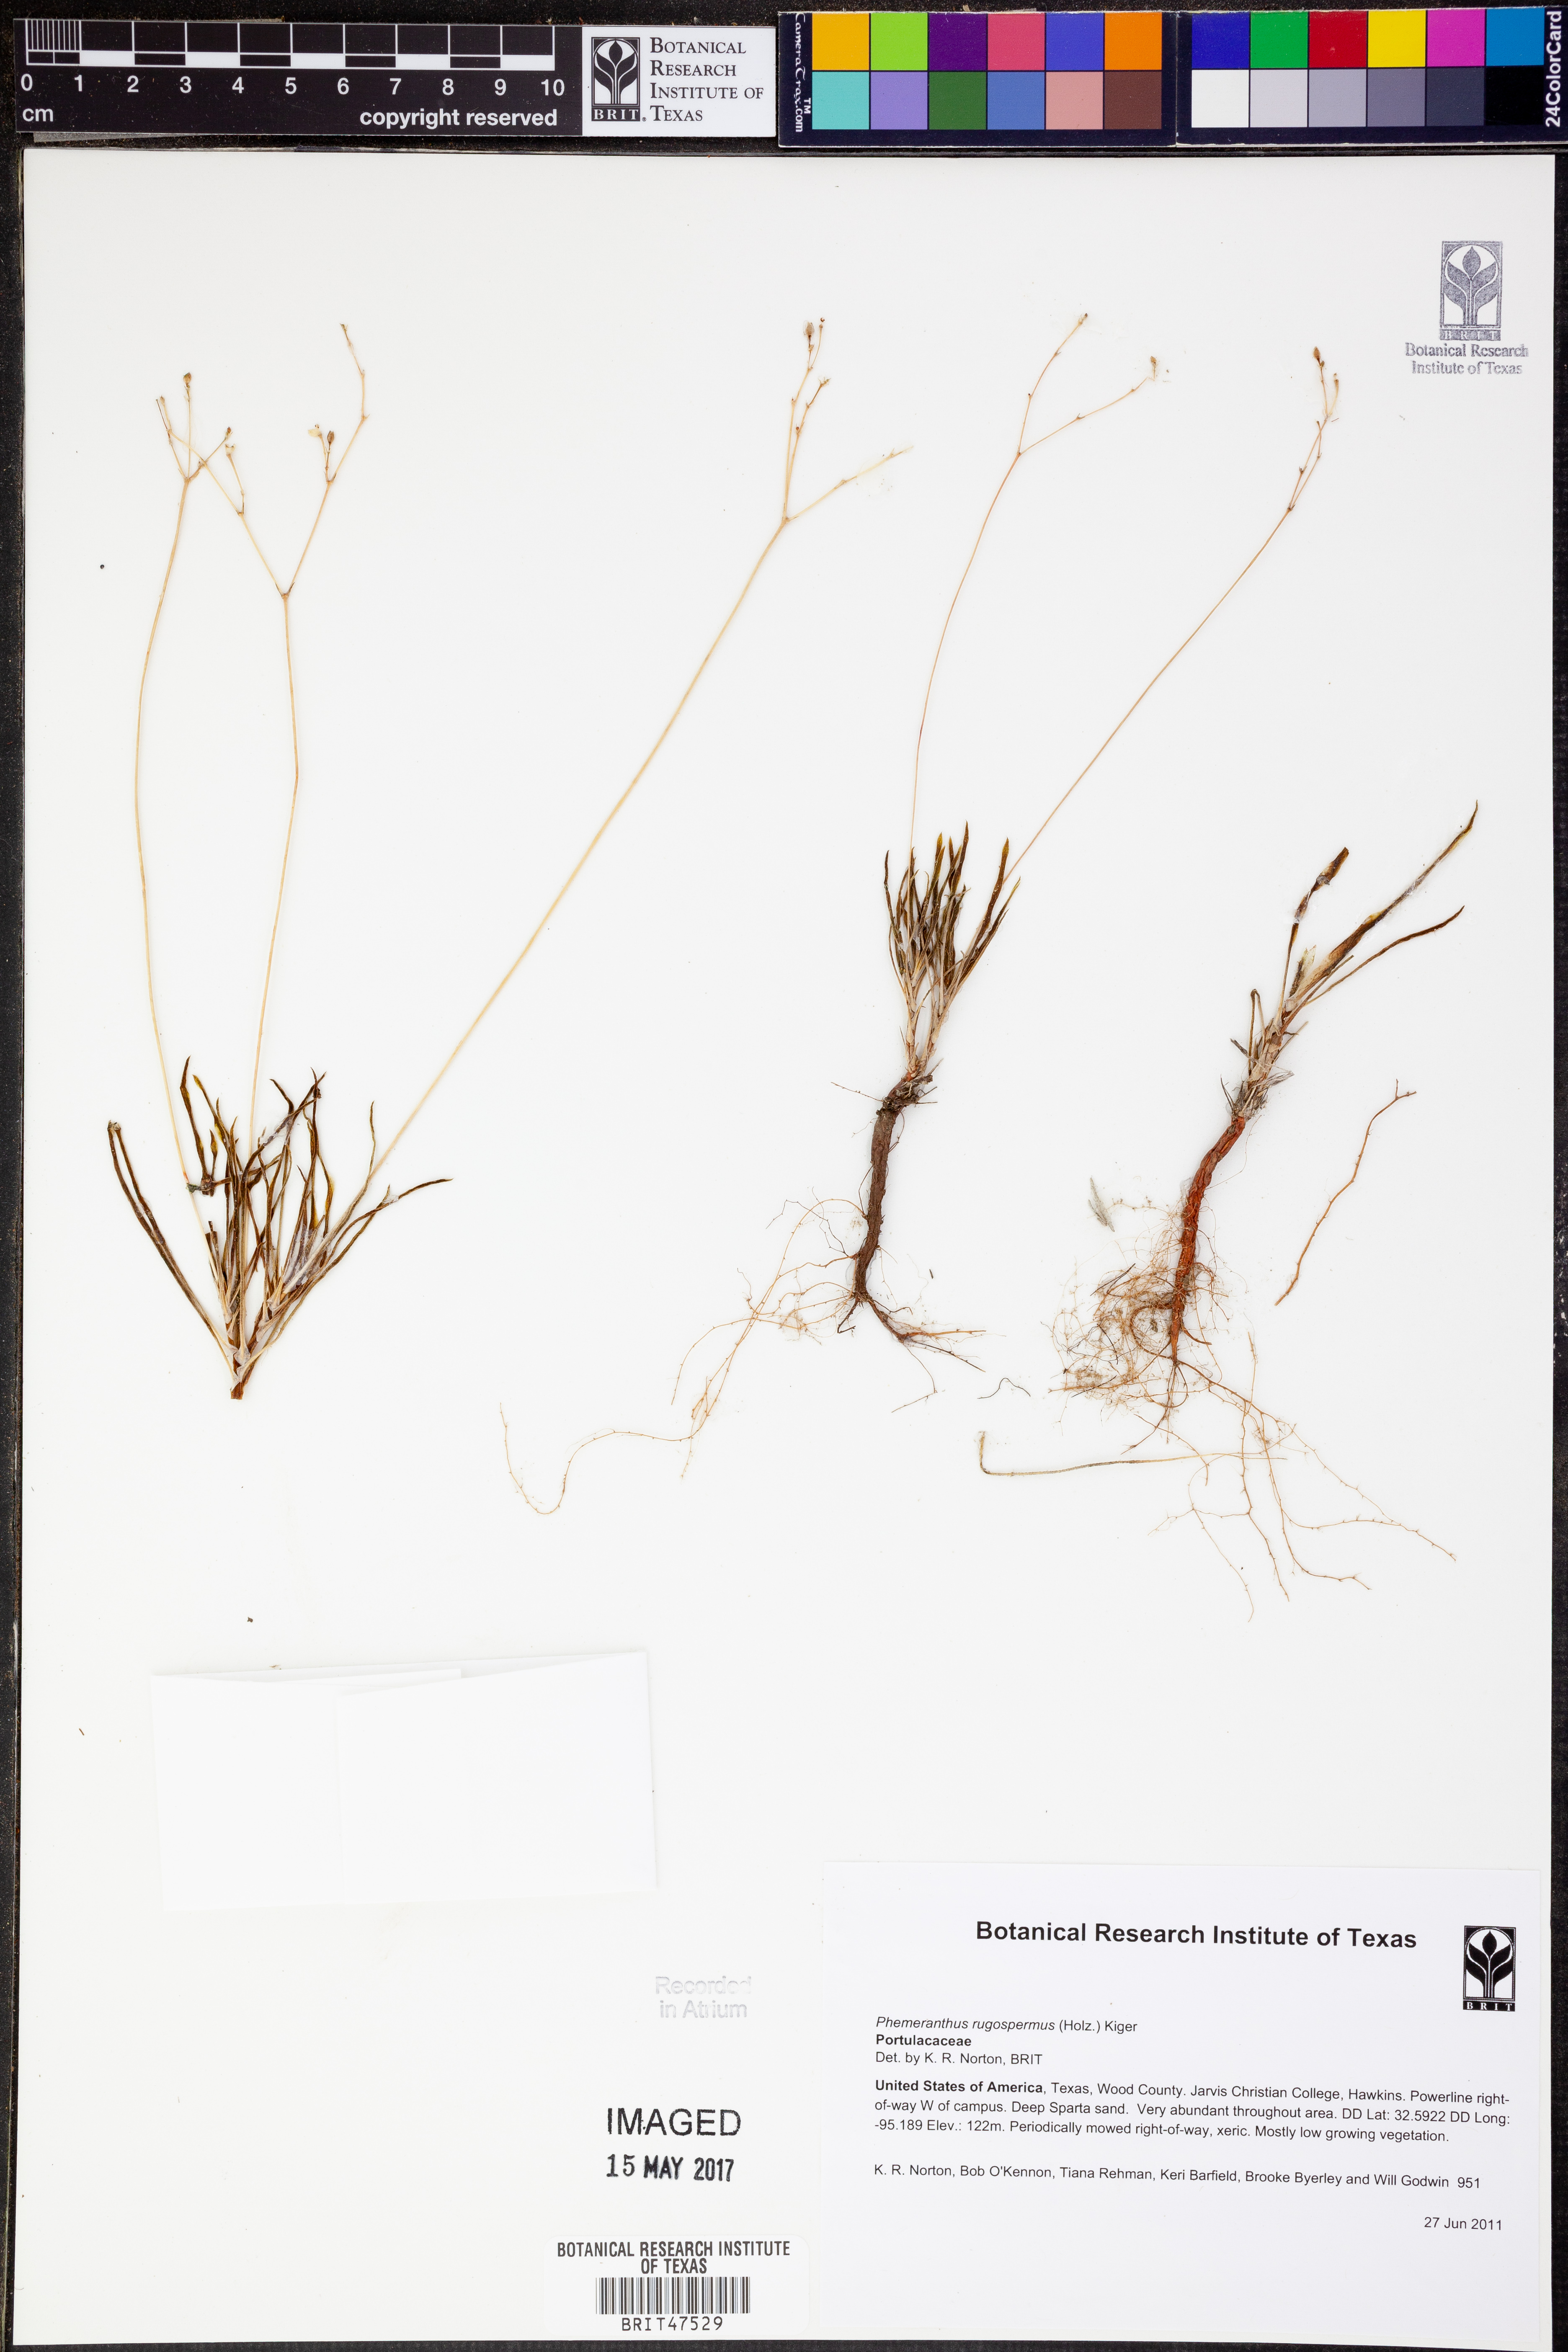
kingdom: Plantae
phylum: Tracheophyta
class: Magnoliopsida
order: Caryophyllales
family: Montiaceae
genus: Phemeranthus
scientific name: Phemeranthus rugospermus
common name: Prairie fameflower
